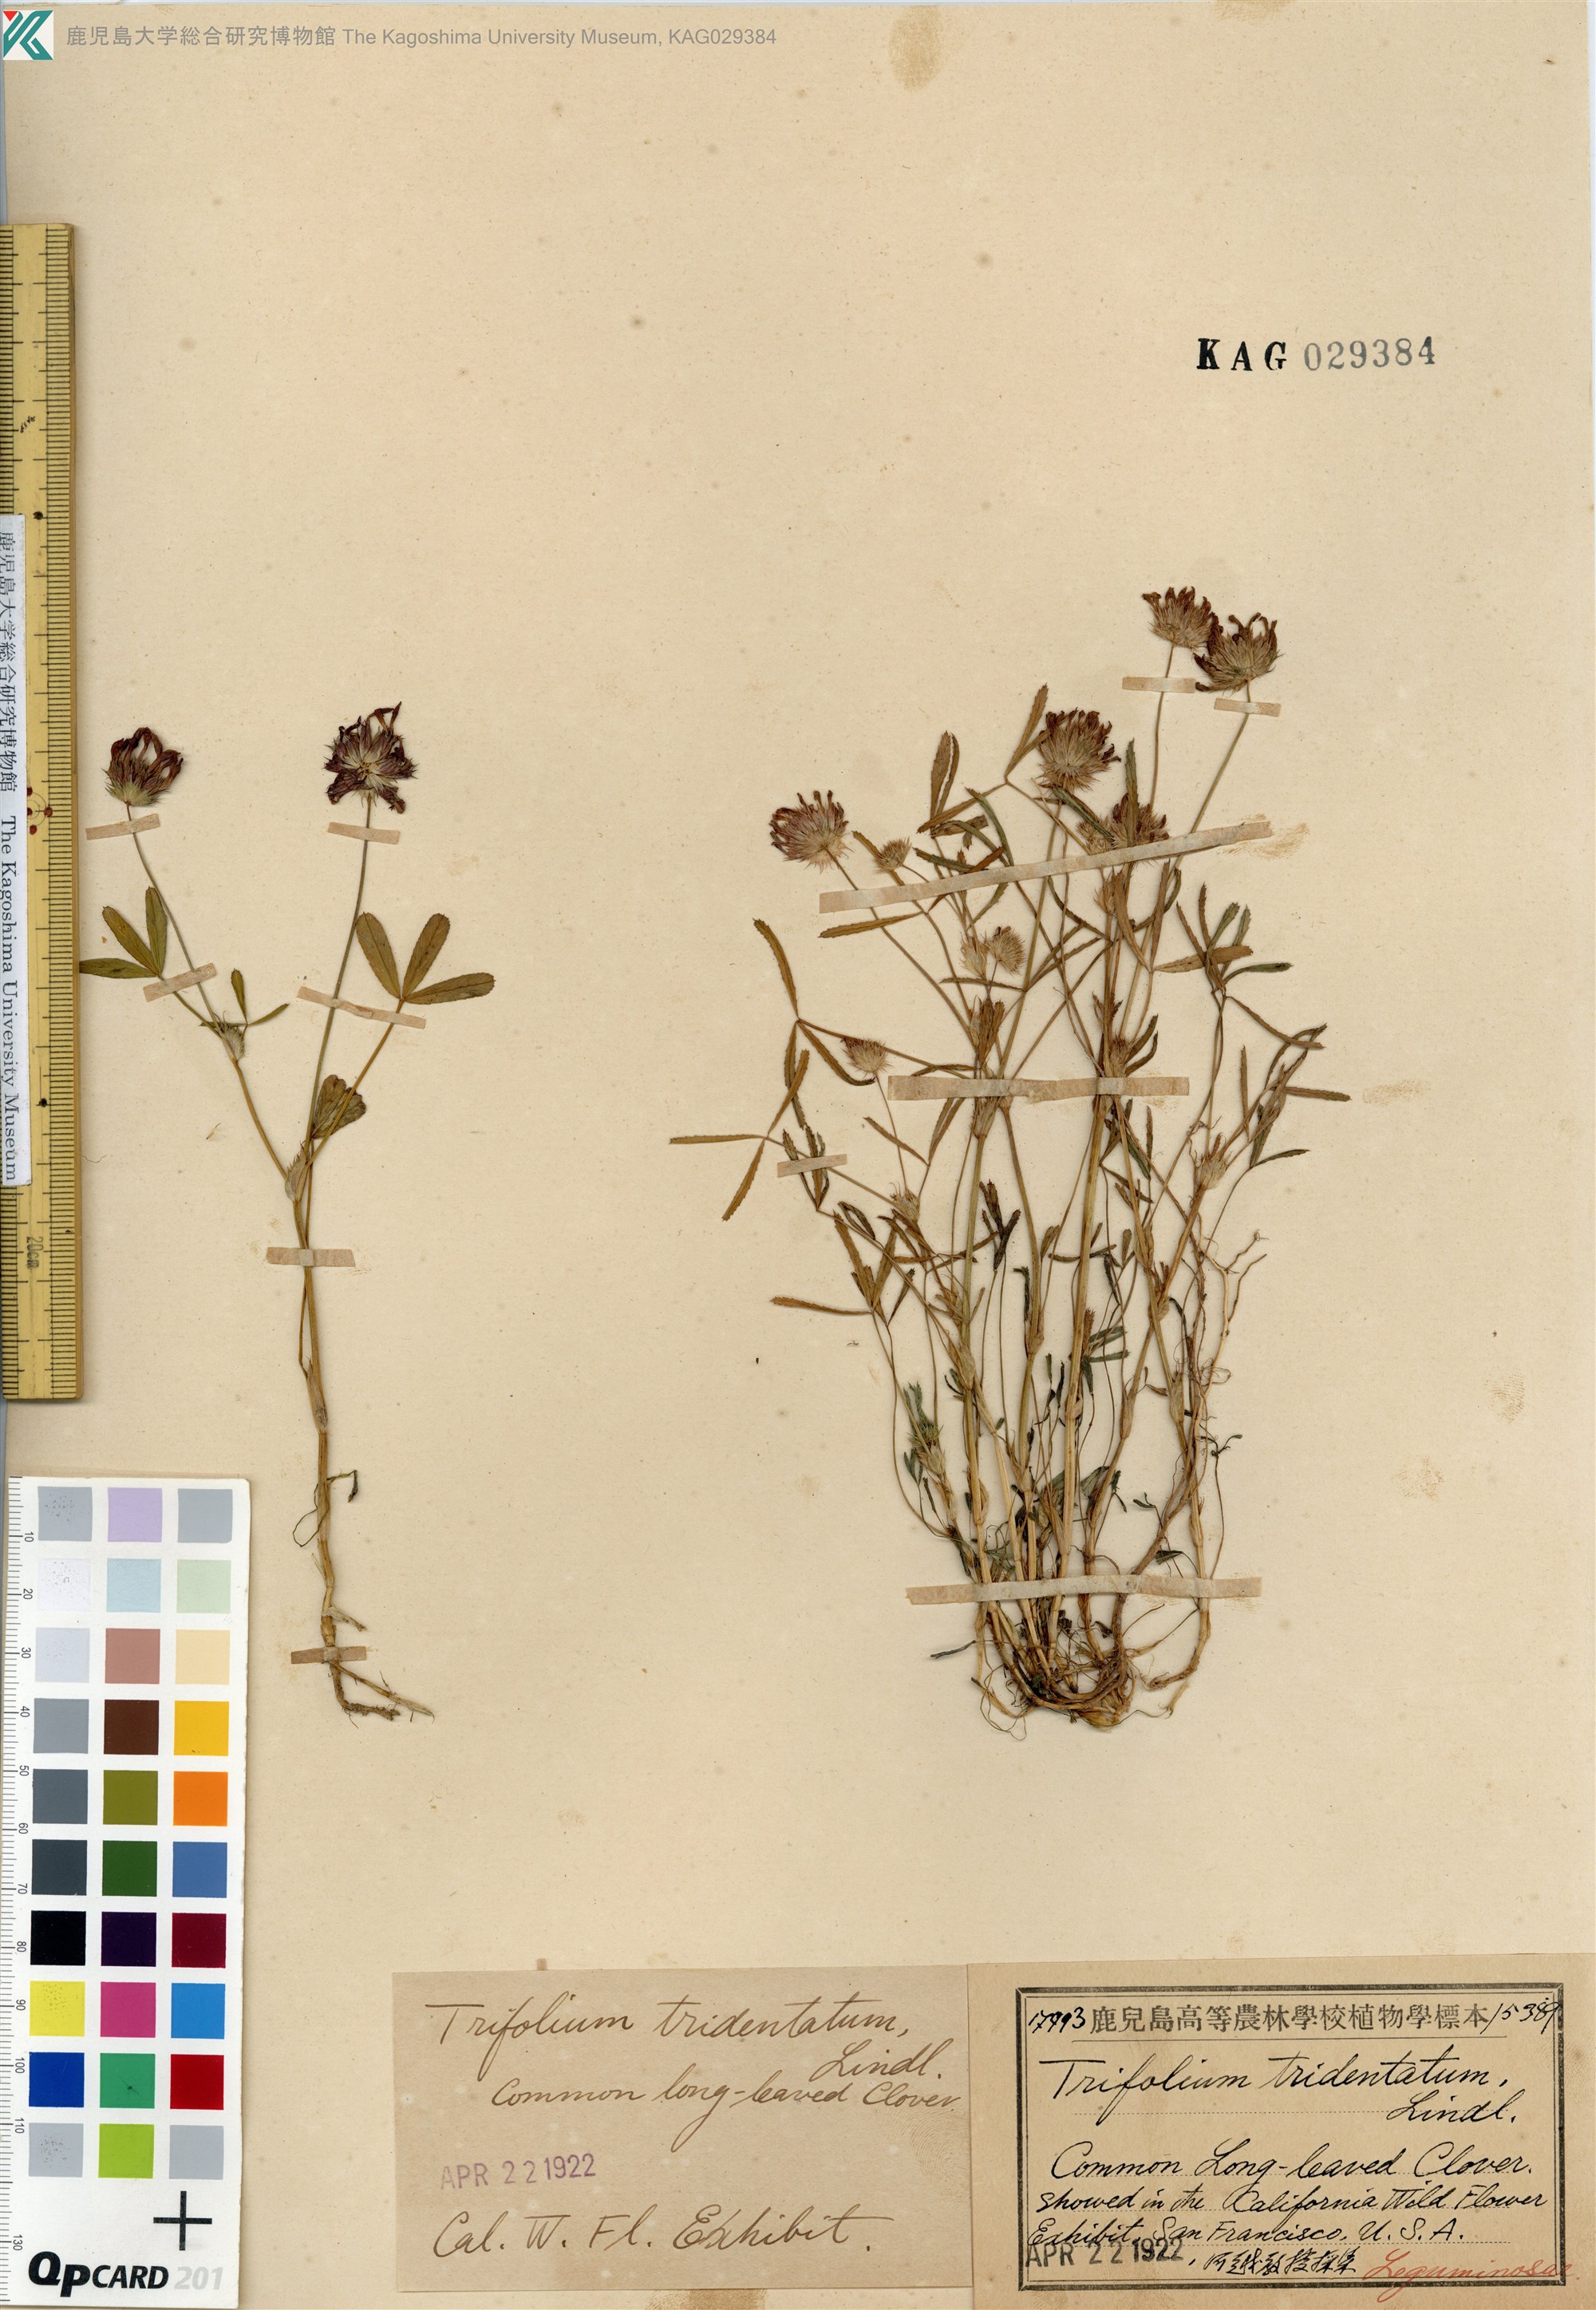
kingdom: Plantae
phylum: Tracheophyta
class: Magnoliopsida
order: Fabales
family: Fabaceae
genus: Trifolium
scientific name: Trifolium willdenovii
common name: Tomcat clover
